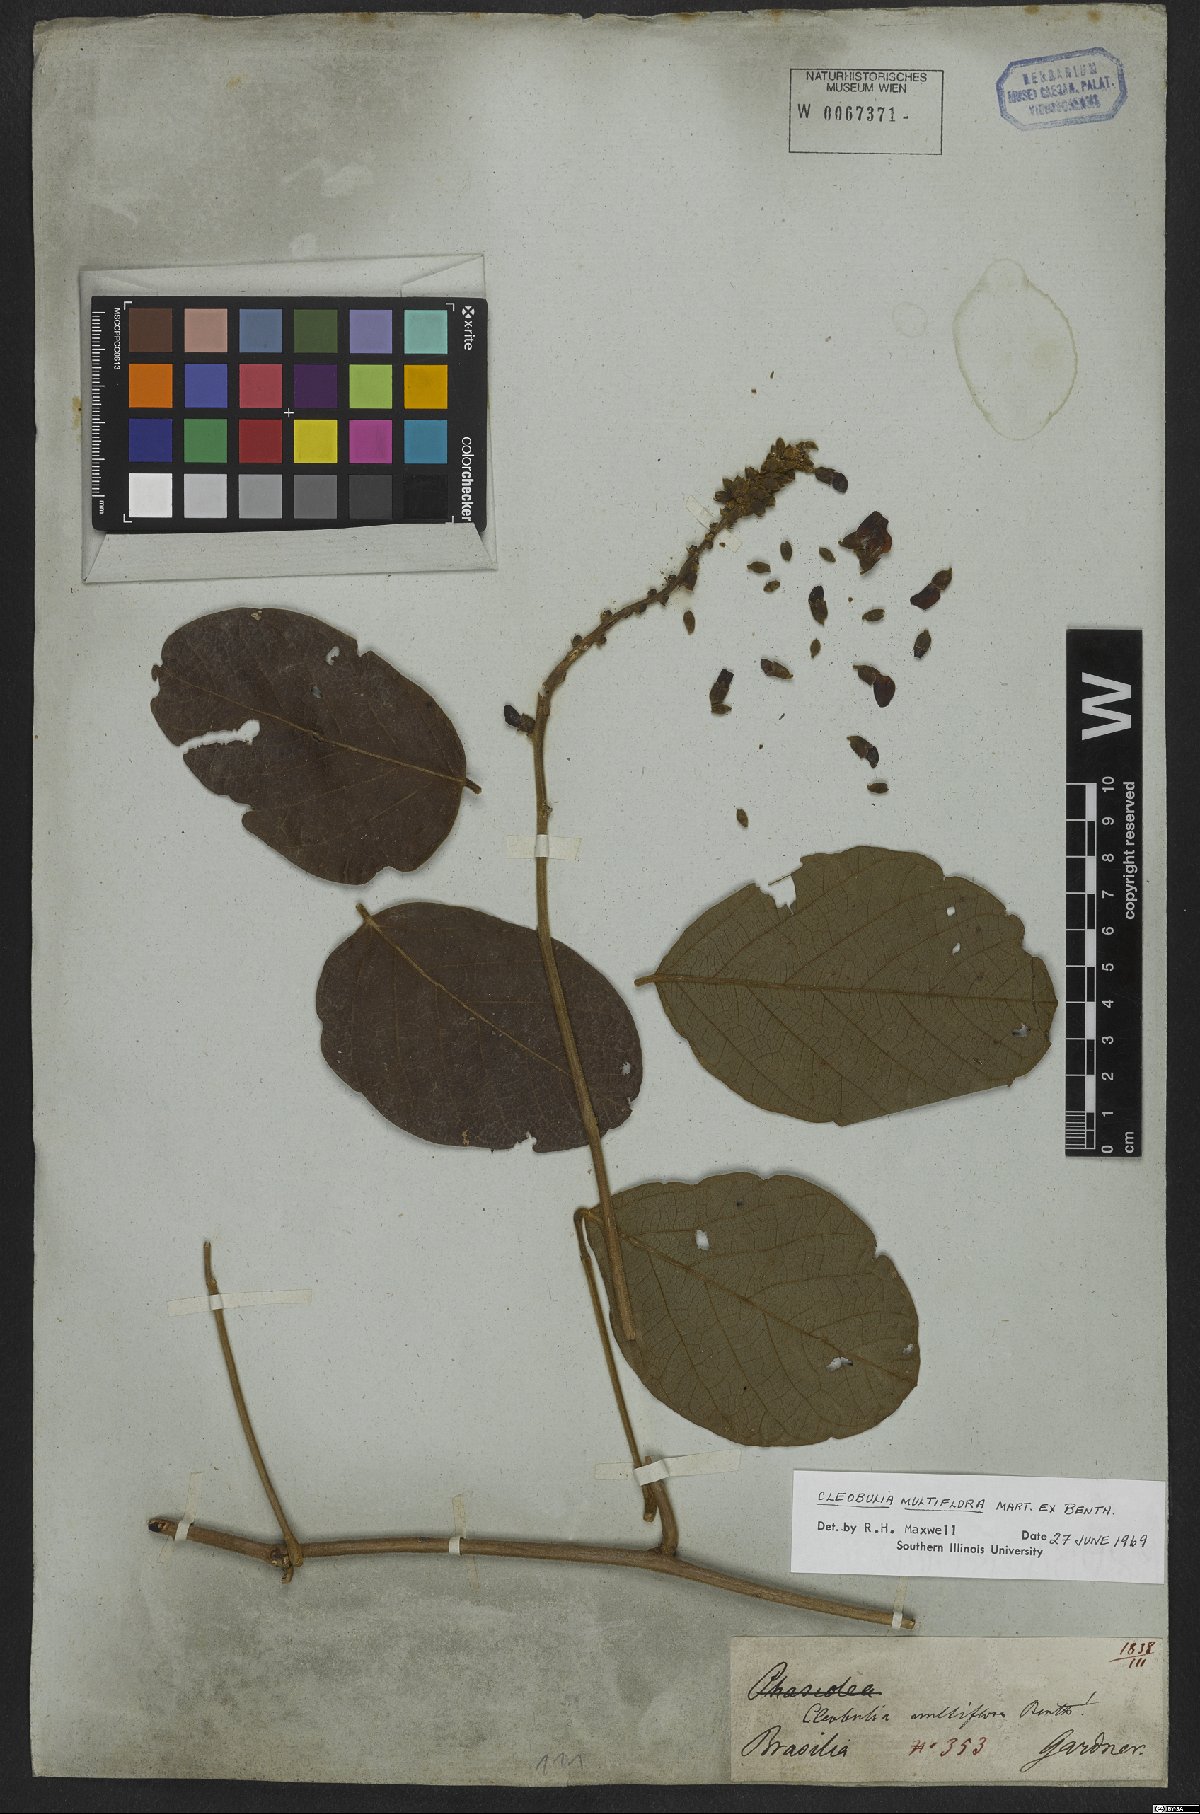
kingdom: Plantae
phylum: Tracheophyta
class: Magnoliopsida
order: Fabales
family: Fabaceae
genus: Cleobulia
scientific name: Cleobulia coccinea
